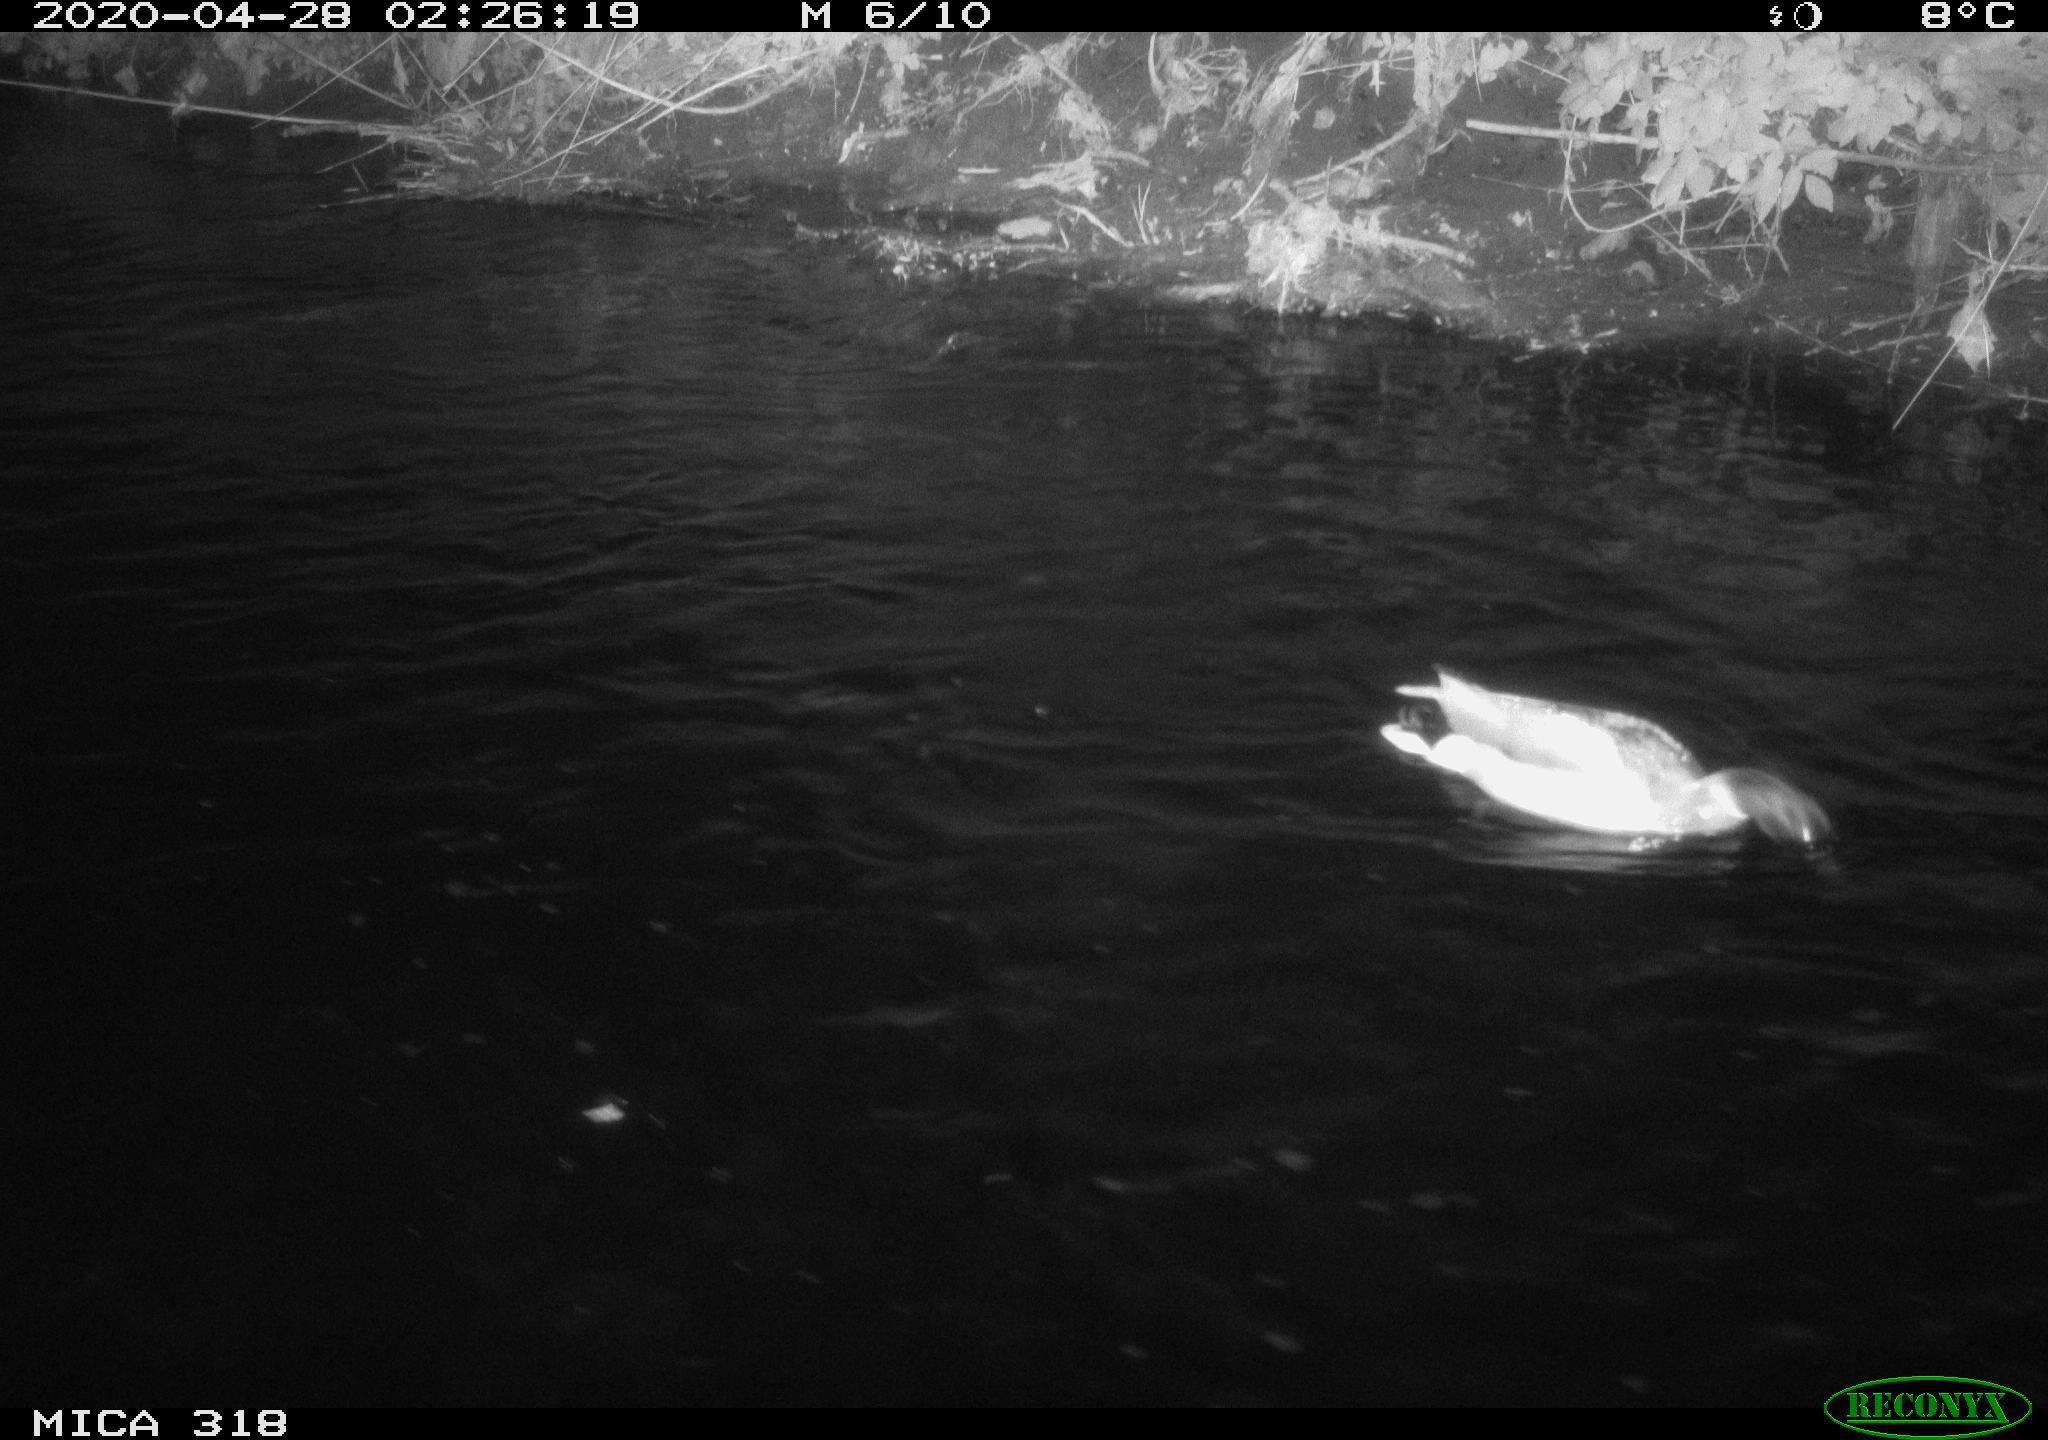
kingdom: Animalia
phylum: Chordata
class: Aves
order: Anseriformes
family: Anatidae
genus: Anas
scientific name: Anas platyrhynchos
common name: Mallard
